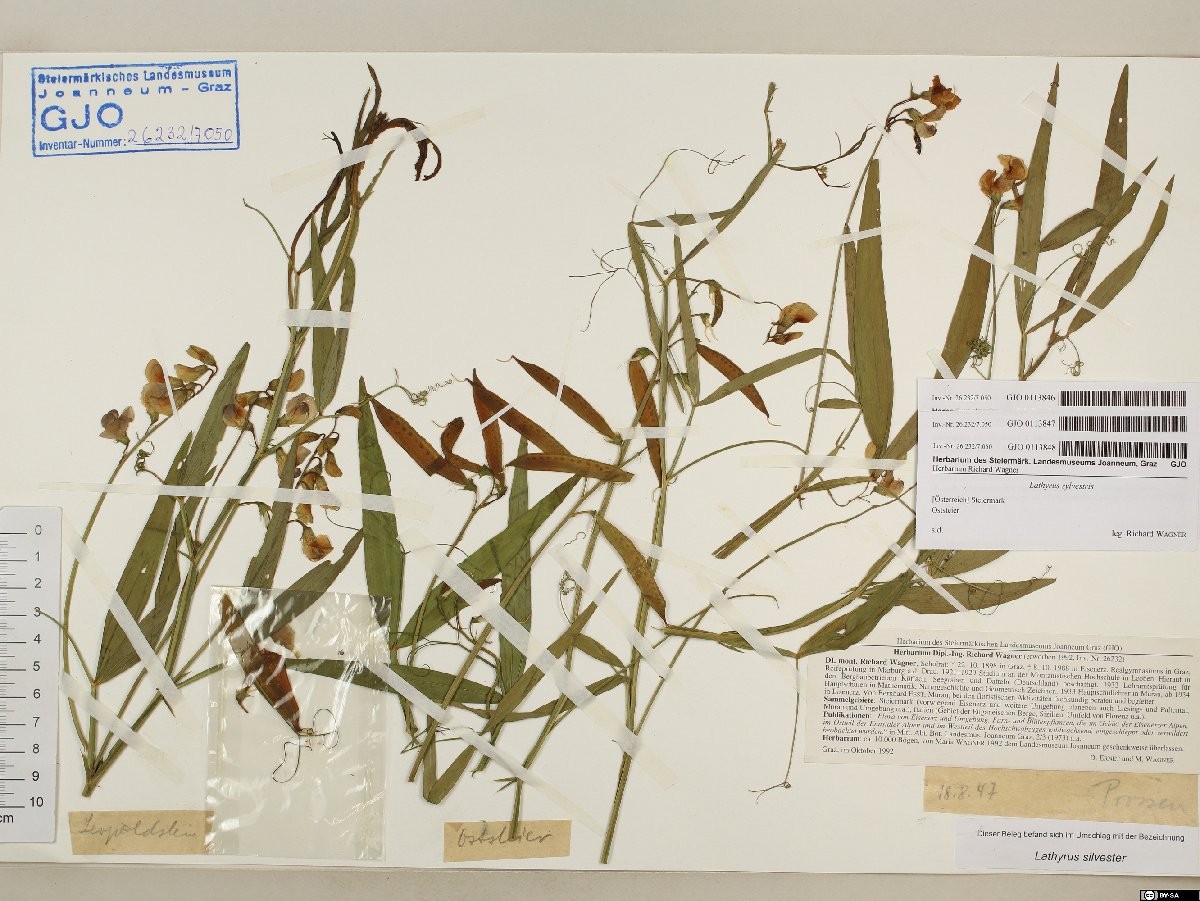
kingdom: Plantae
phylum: Tracheophyta
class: Magnoliopsida
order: Fabales
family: Fabaceae
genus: Lathyrus
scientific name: Lathyrus sylvestris
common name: Flat pea
